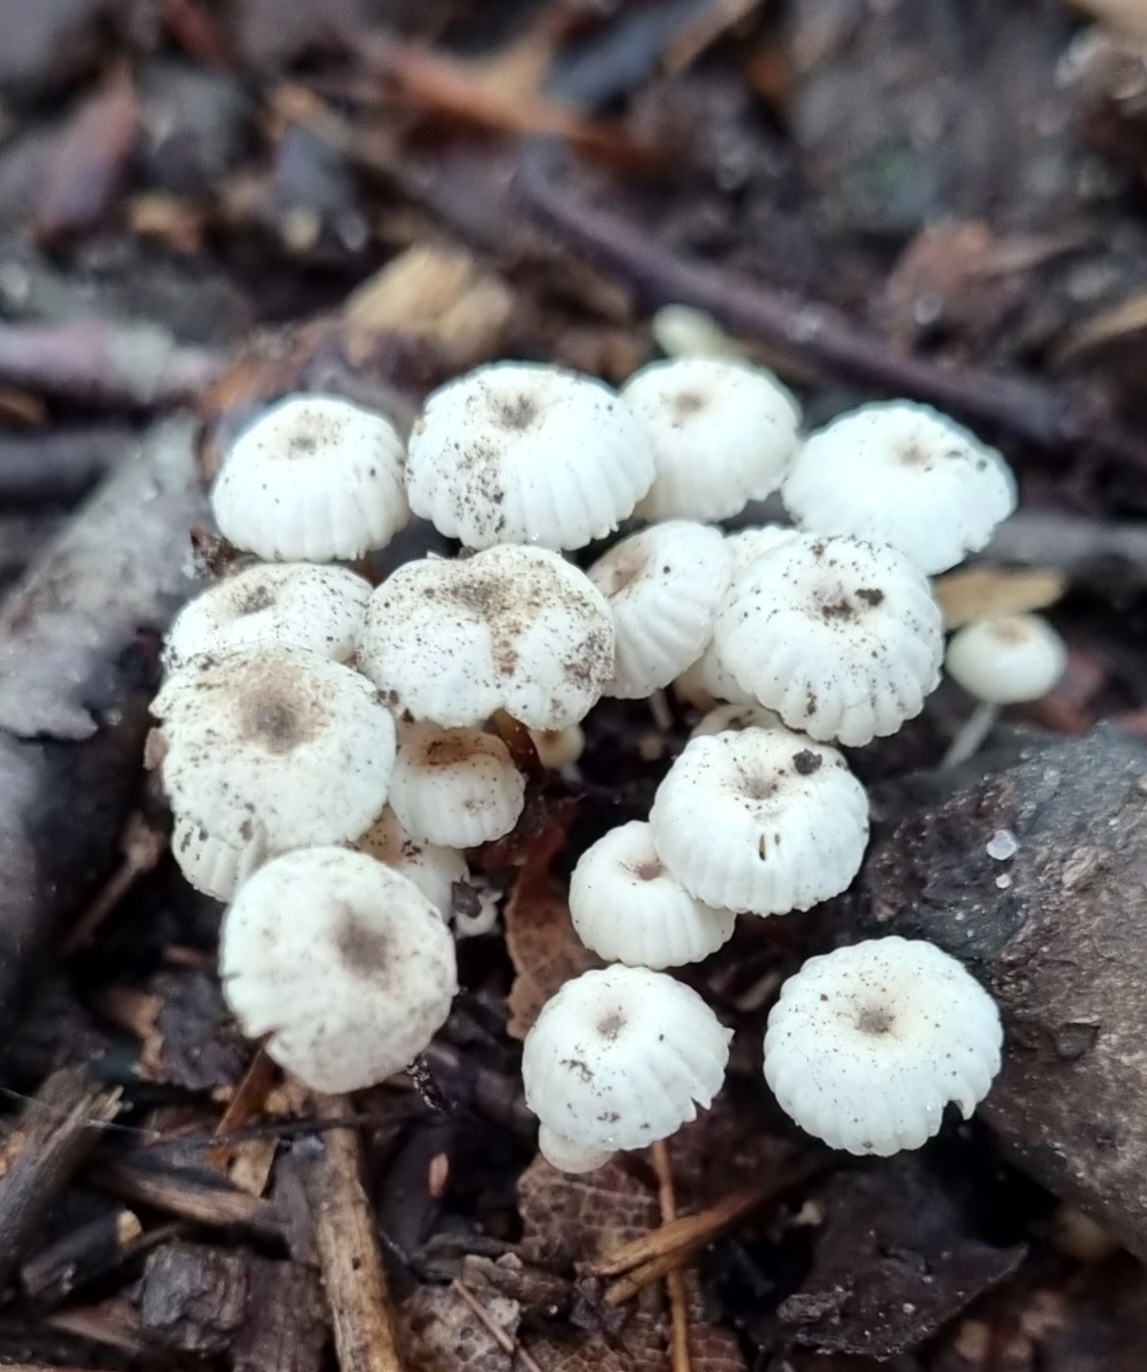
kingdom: Fungi
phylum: Basidiomycota
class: Agaricomycetes
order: Agaricales
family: Marasmiaceae
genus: Marasmius
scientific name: Marasmius rotula
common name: hjul-bruskhat
